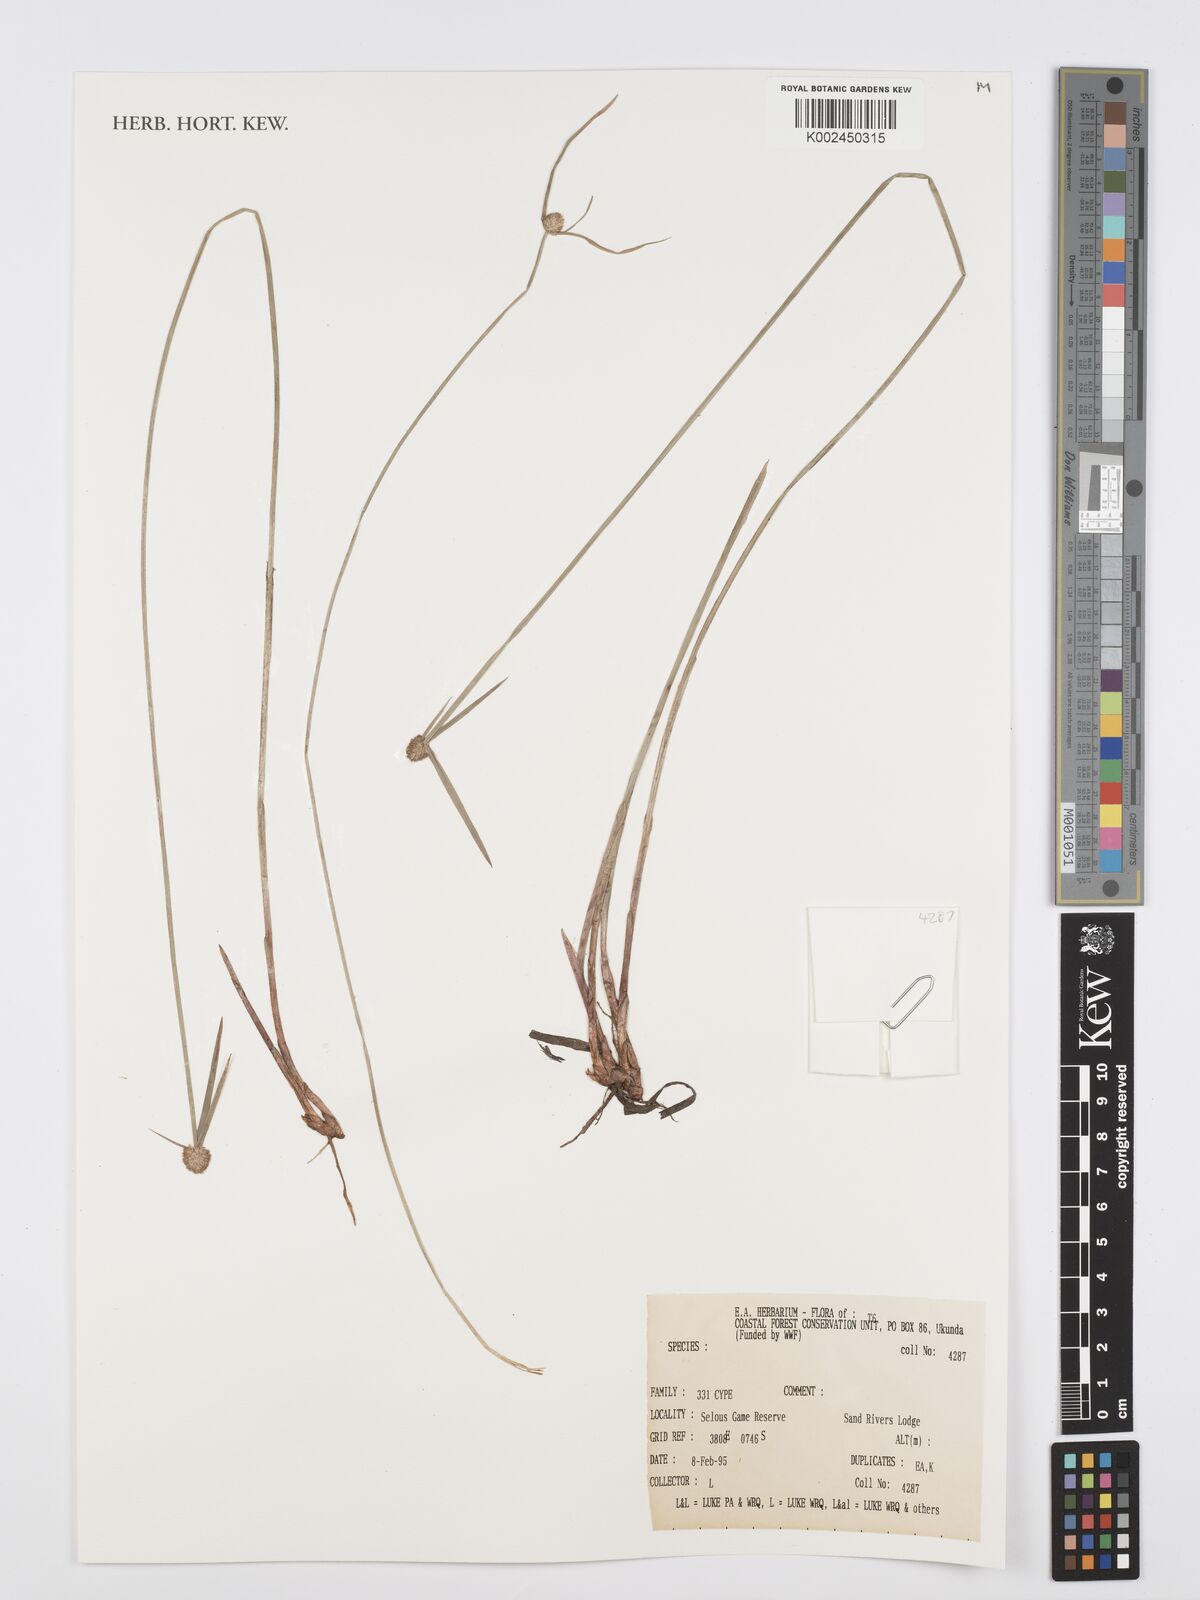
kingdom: Plantae
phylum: Tracheophyta
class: Liliopsida
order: Poales
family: Cyperaceae
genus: Cyperus
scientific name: Cyperus
